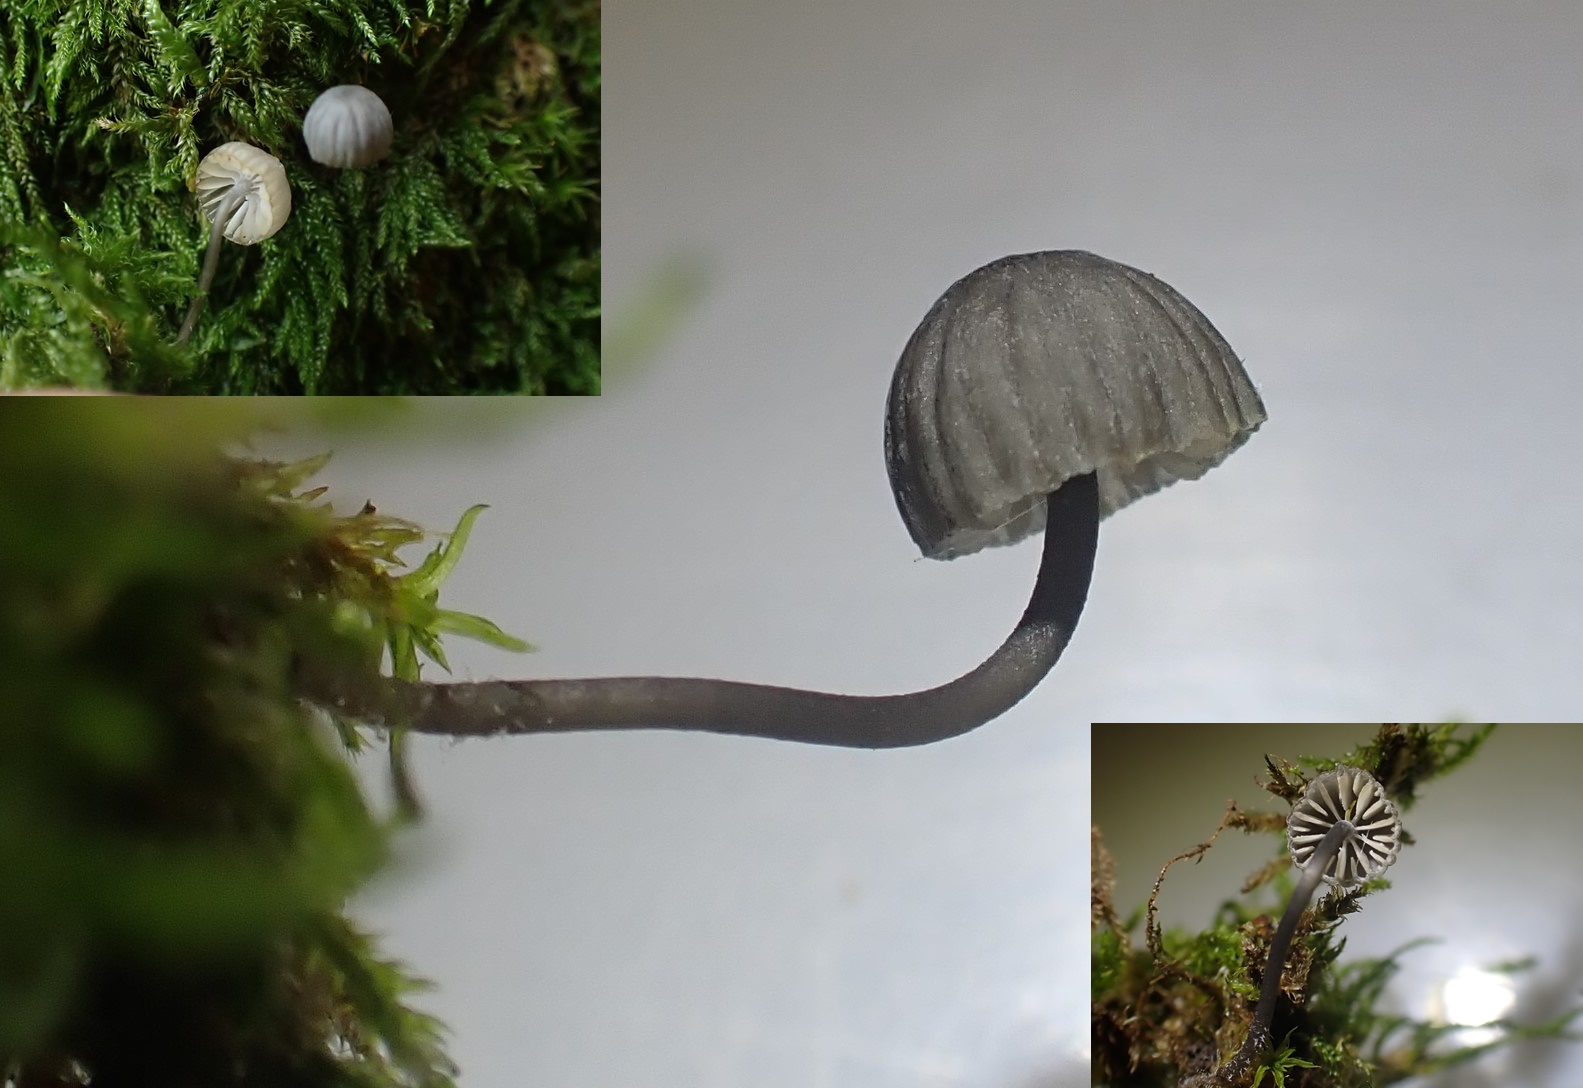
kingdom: Fungi
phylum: Basidiomycota
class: Agaricomycetes
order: Agaricales
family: Mycenaceae
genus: Mycena
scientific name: Mycena pseudocorticola
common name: gråblå bark-huesvamp
